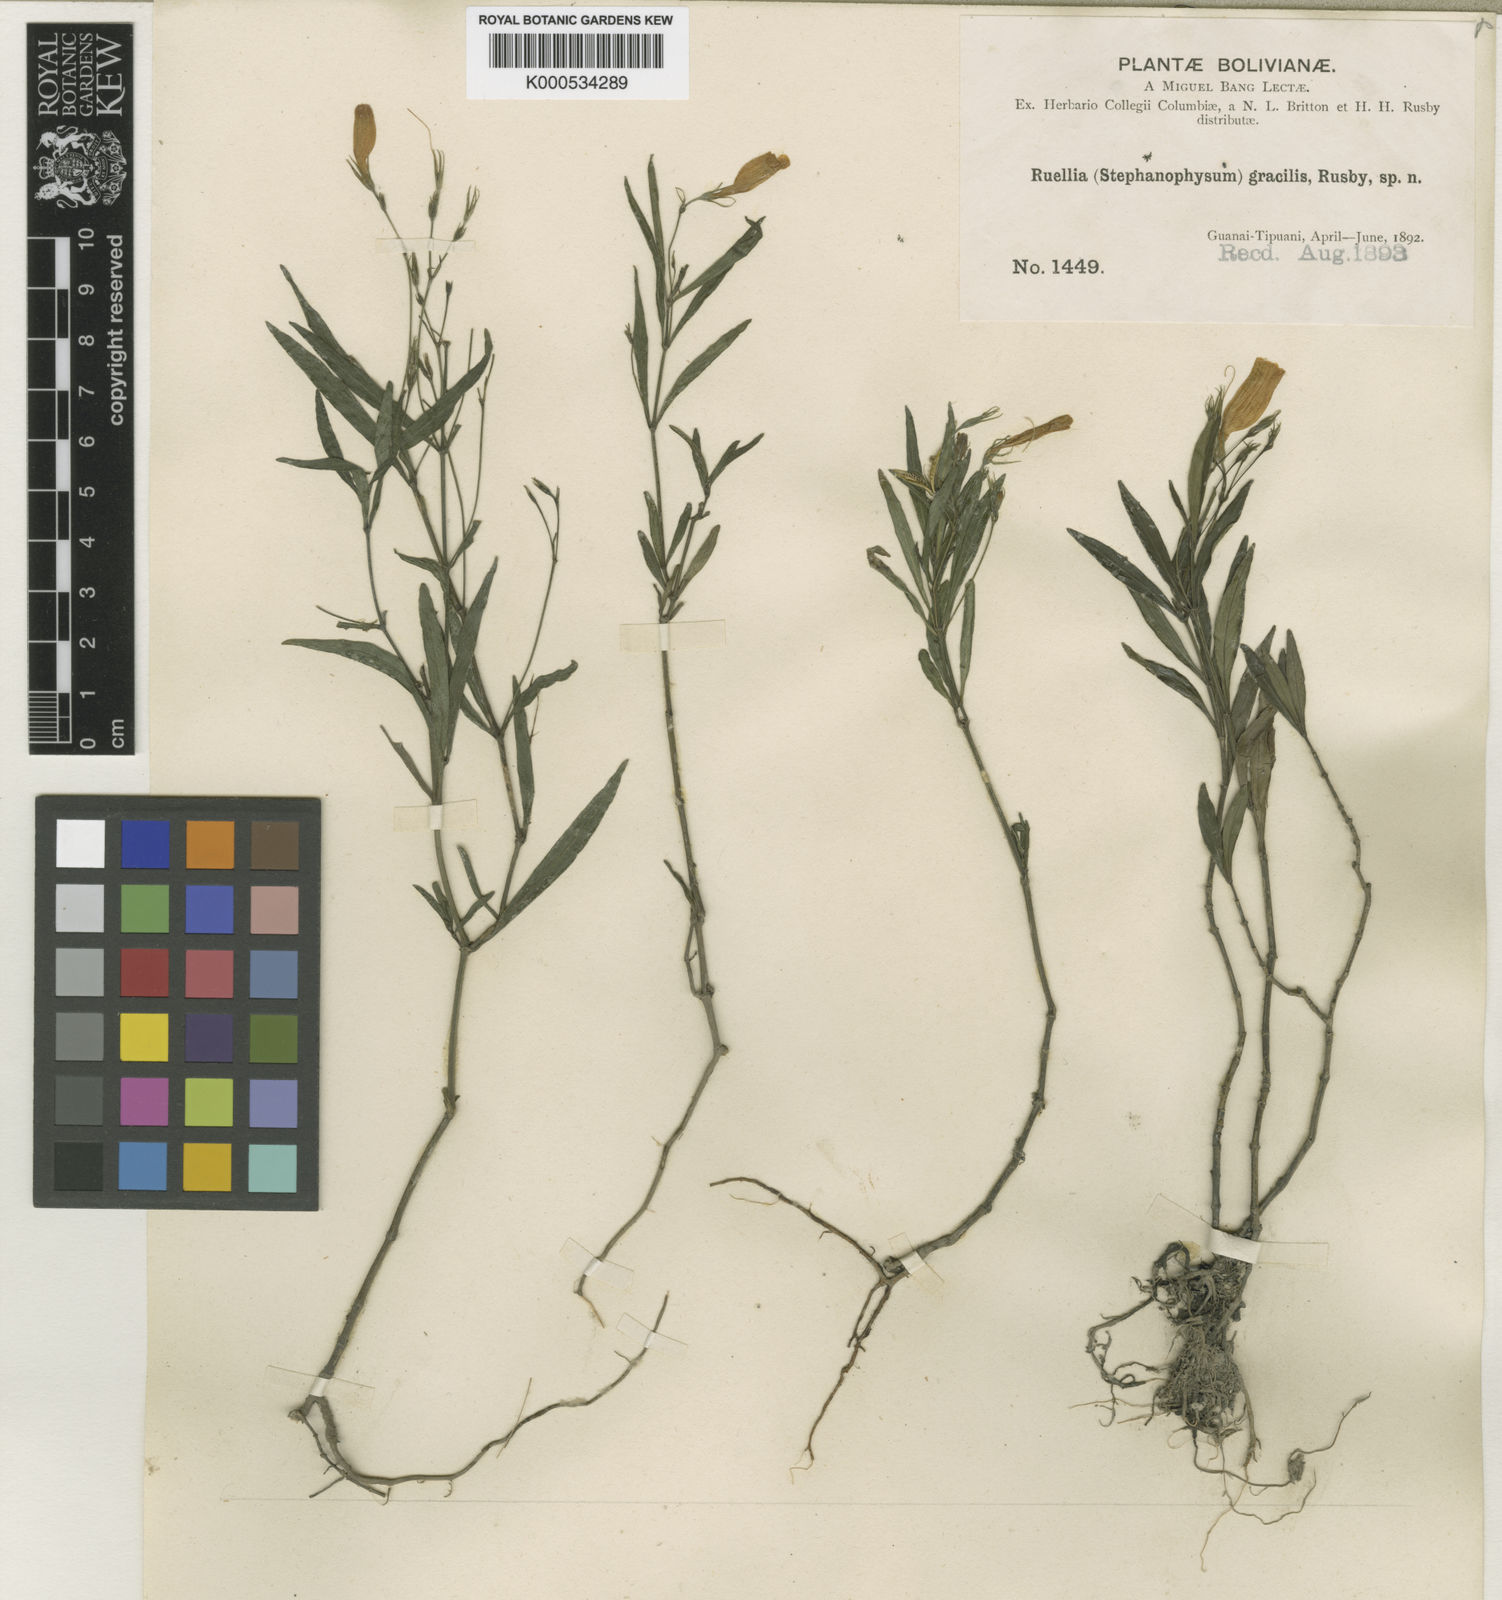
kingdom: Plantae
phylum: Tracheophyta
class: Magnoliopsida
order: Lamiales
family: Acanthaceae
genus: Ruellia
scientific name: Ruellia gracilis
